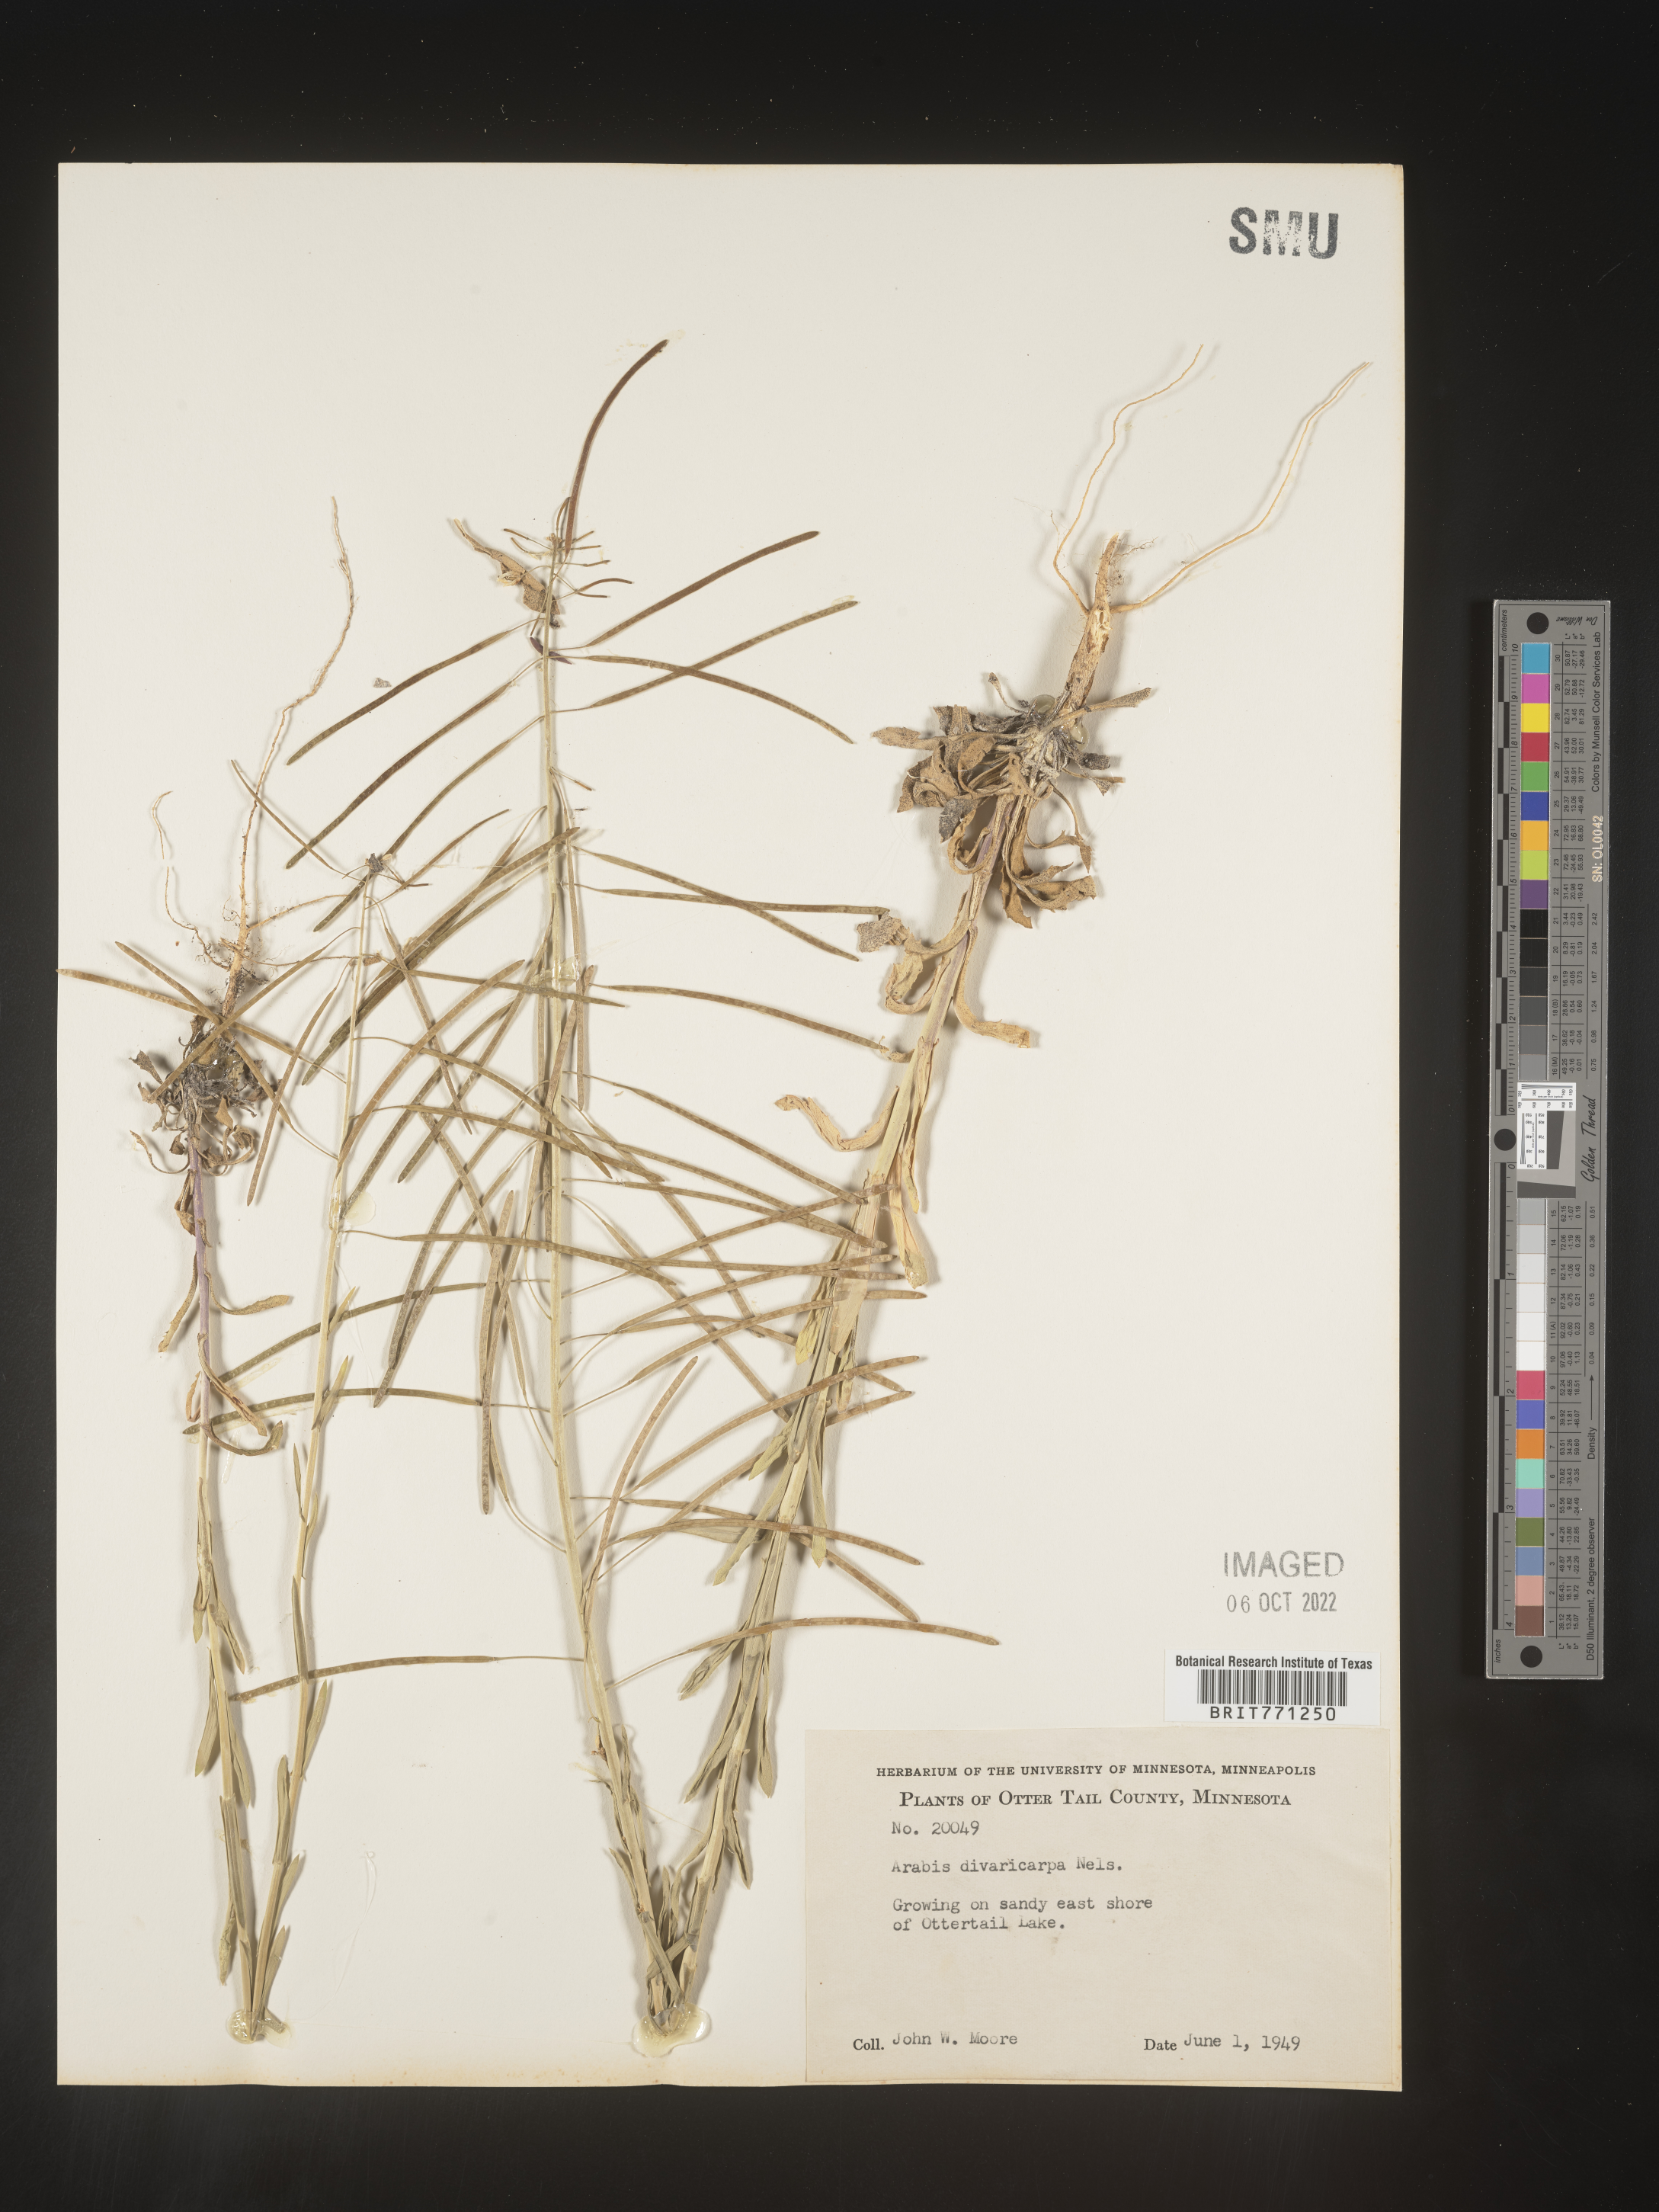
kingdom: Plantae
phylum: Tracheophyta
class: Magnoliopsida
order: Brassicales
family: Brassicaceae
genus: Boechera
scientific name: Boechera divaricarpa
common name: Divaricate rockcress
